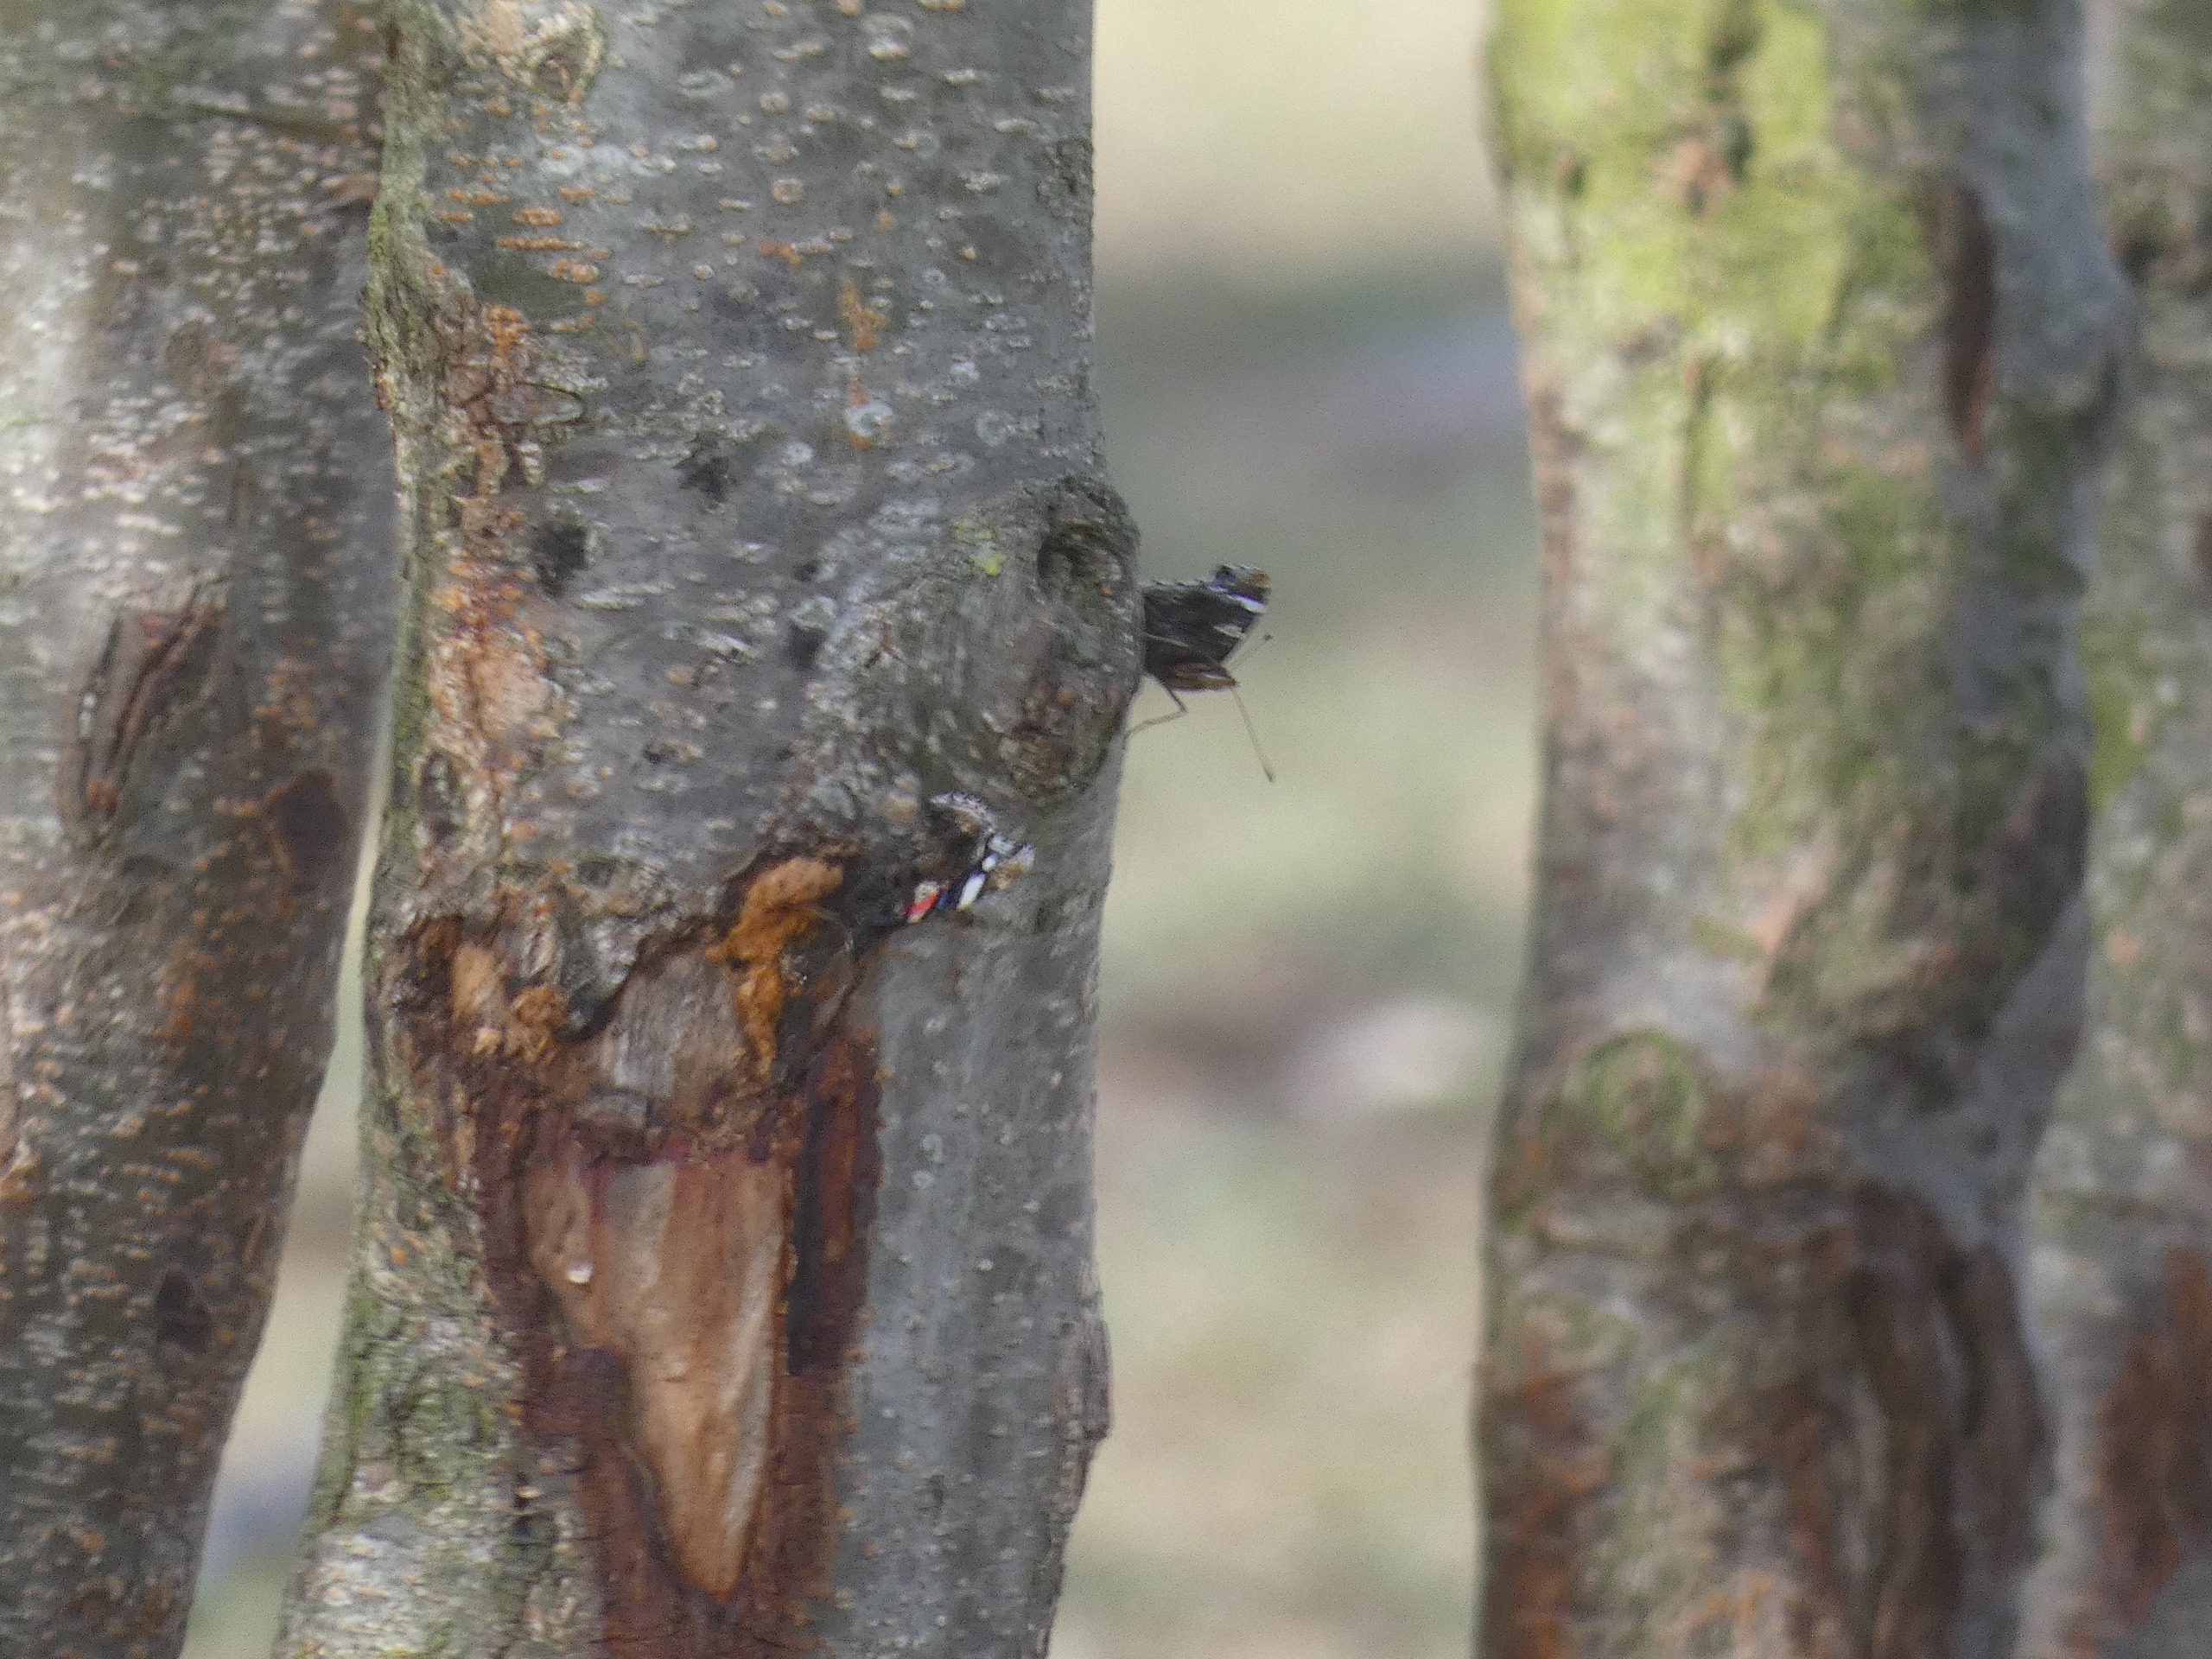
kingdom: Animalia
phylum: Arthropoda
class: Insecta
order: Lepidoptera
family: Nymphalidae
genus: Vanessa
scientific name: Vanessa atalanta
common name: Admiral
